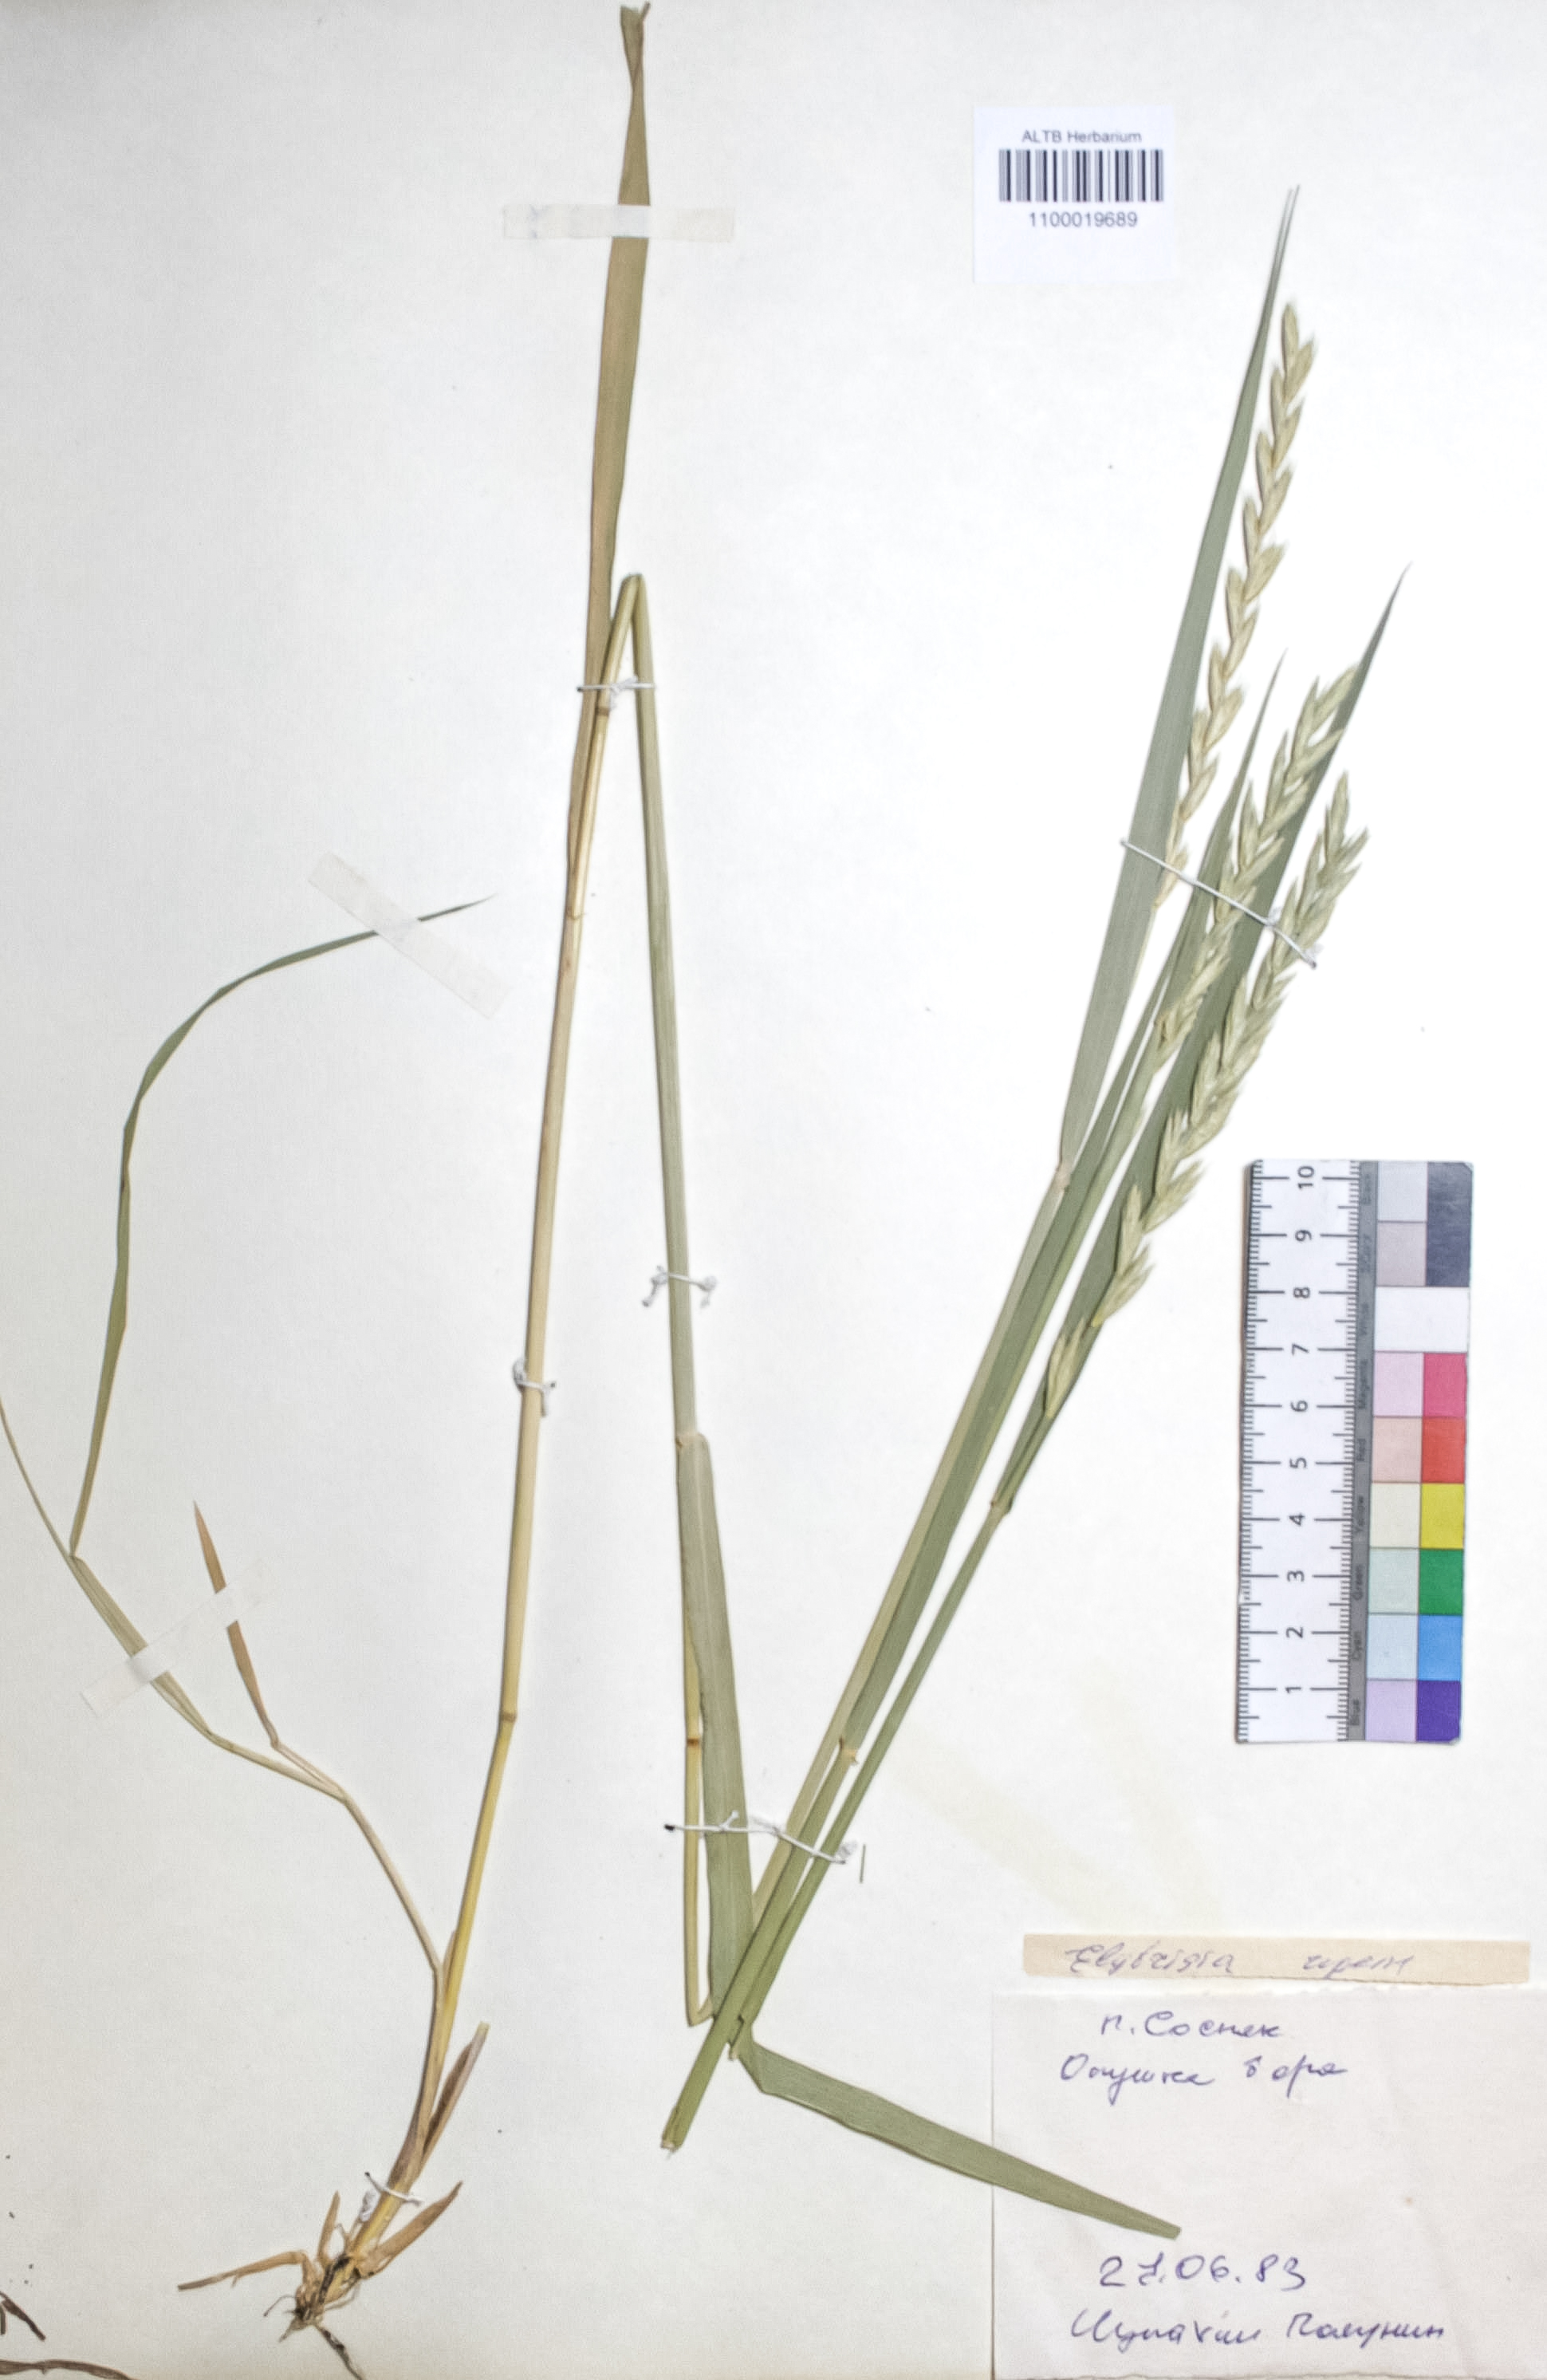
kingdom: Plantae
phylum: Tracheophyta
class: Liliopsida
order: Poales
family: Poaceae
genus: Elymus
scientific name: Elymus repens
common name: Quackgrass
